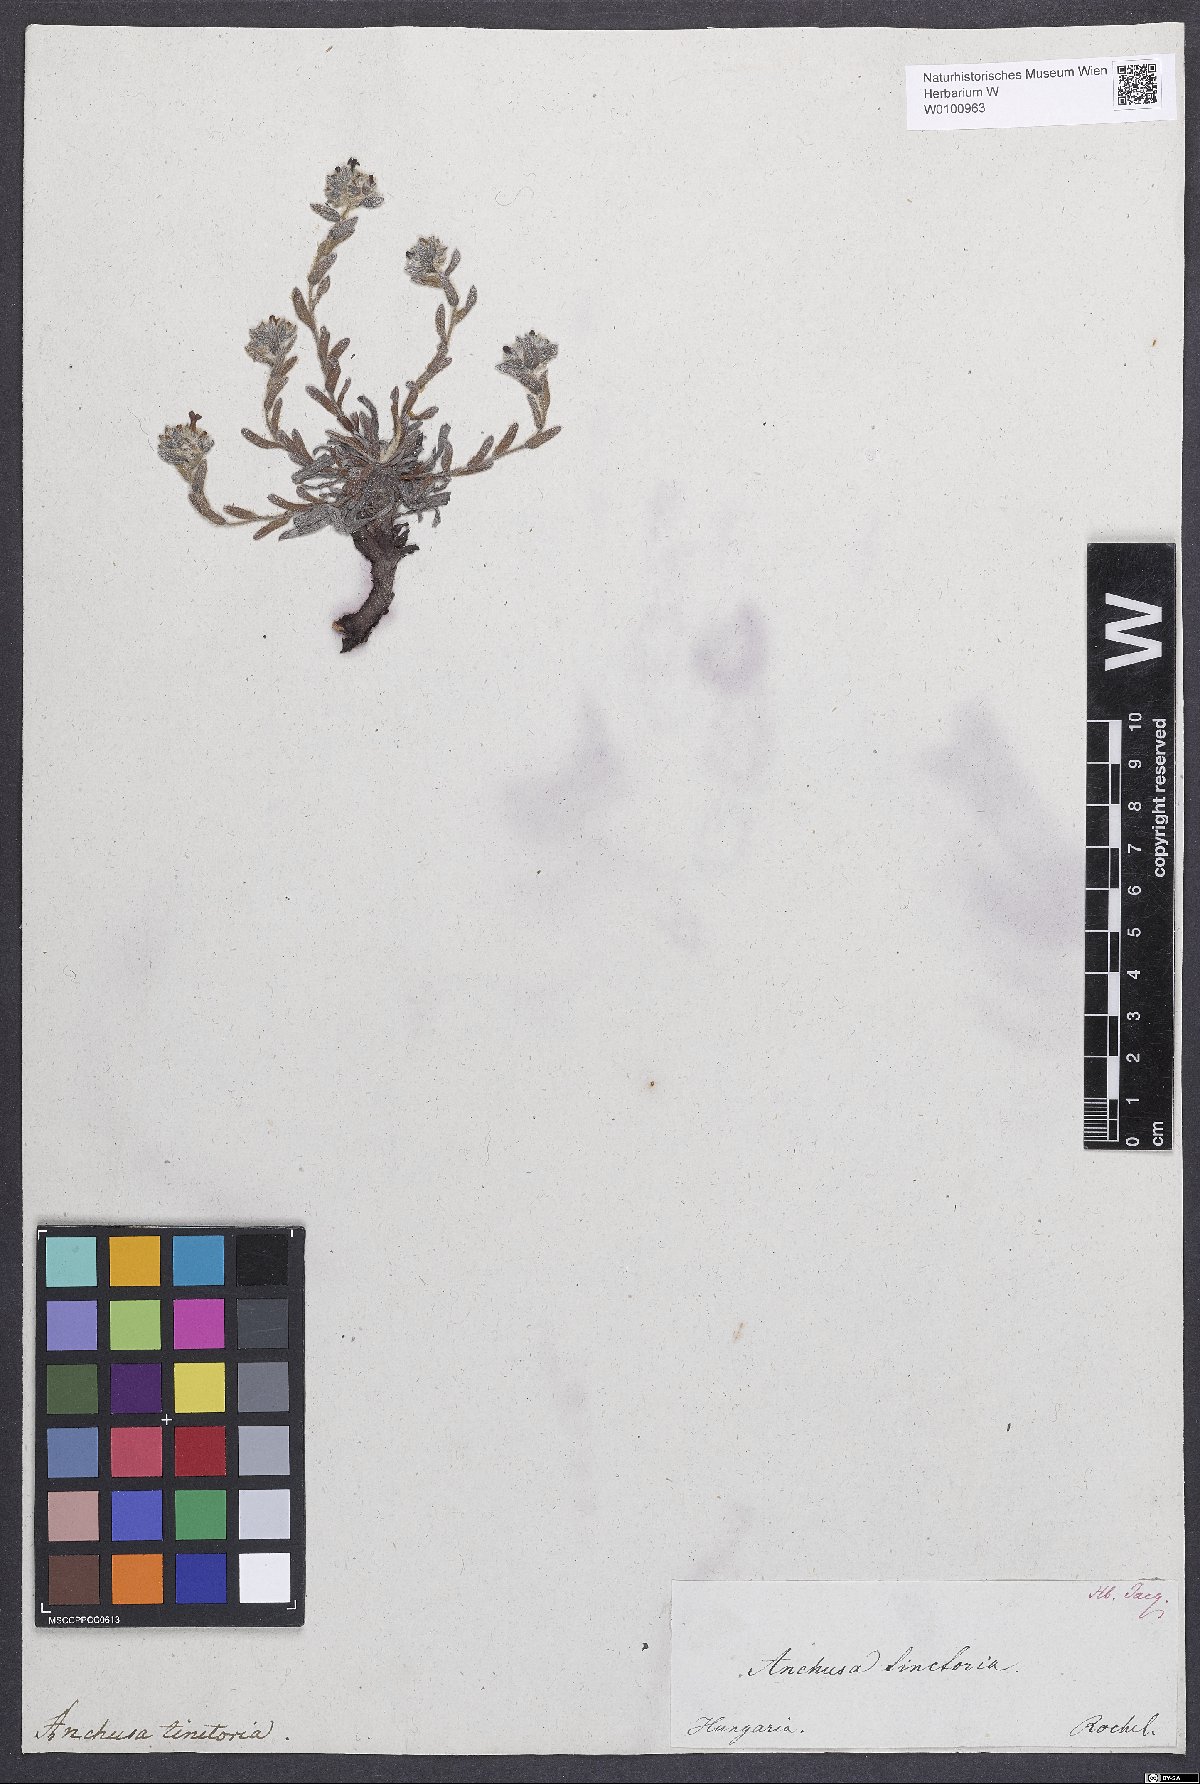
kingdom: Plantae
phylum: Tracheophyta
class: Magnoliopsida
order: Boraginales
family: Boraginaceae
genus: Alkanna
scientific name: Alkanna tinctoria
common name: Dyer's-alkanet
